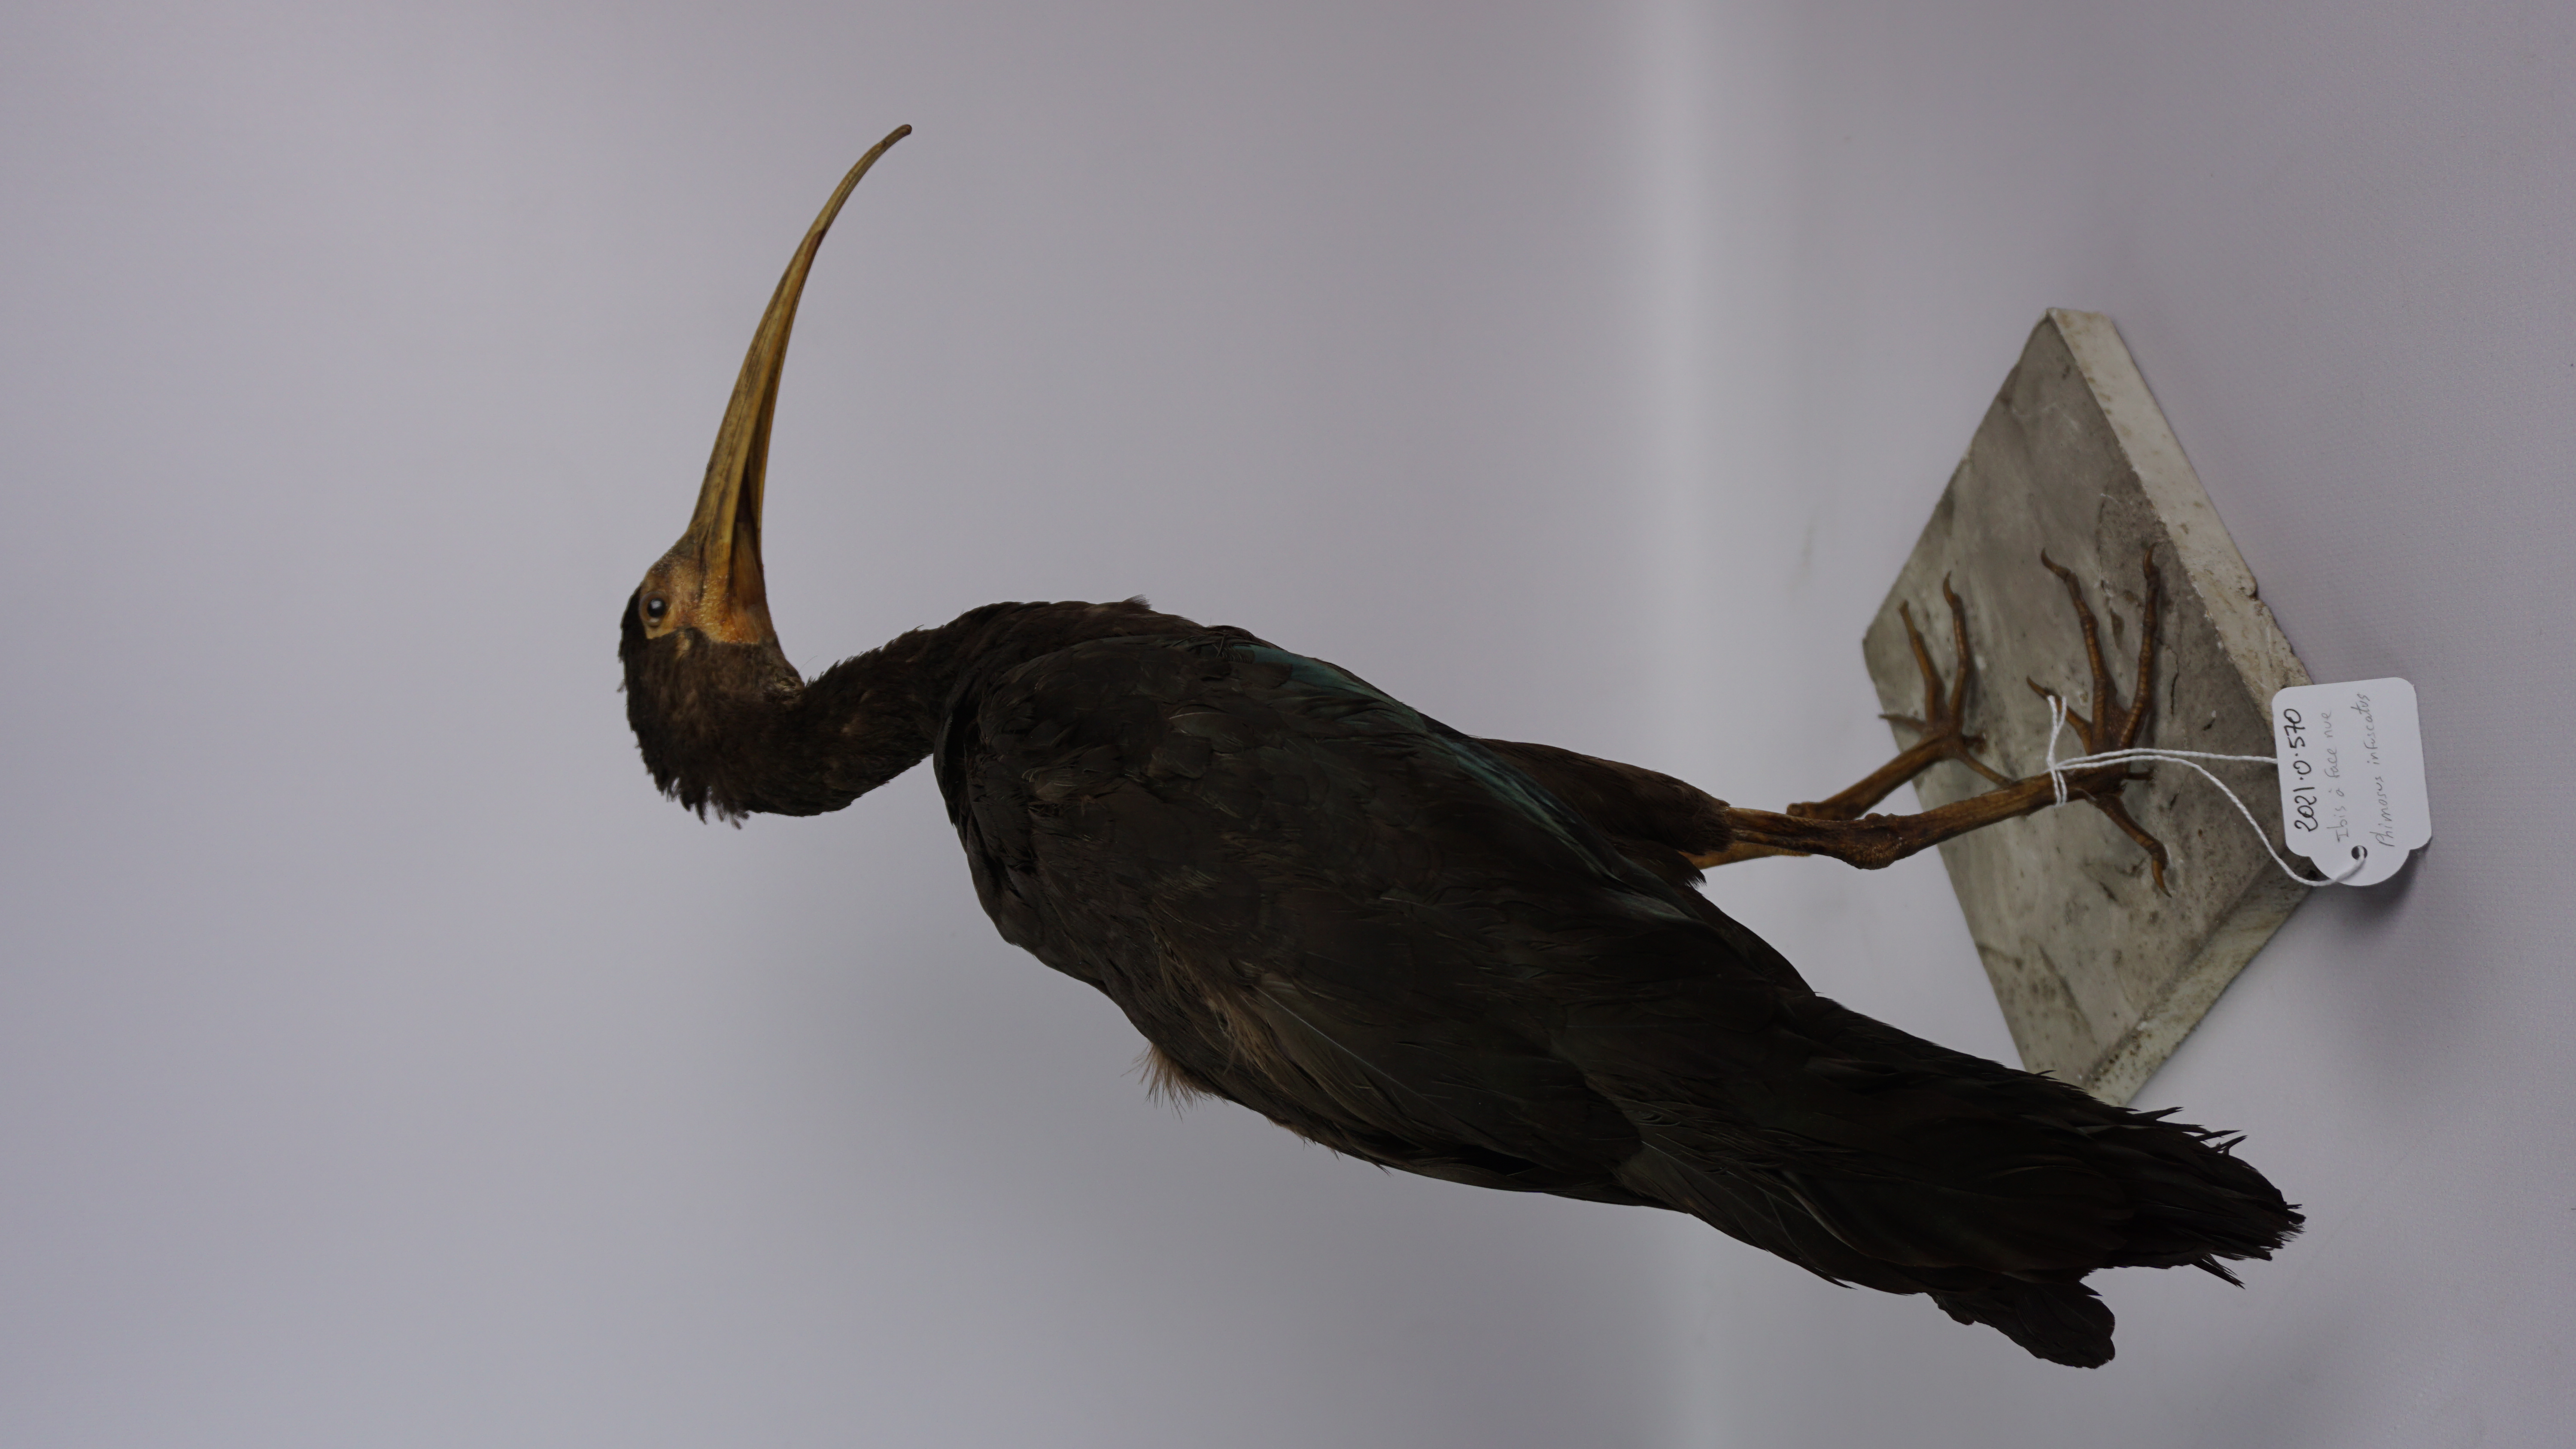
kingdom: Animalia
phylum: Chordata
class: Aves
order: Pelecaniformes
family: Threskiornithidae
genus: Phimosus
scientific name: Phimosus infuscatus
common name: Bare-faced ibis
